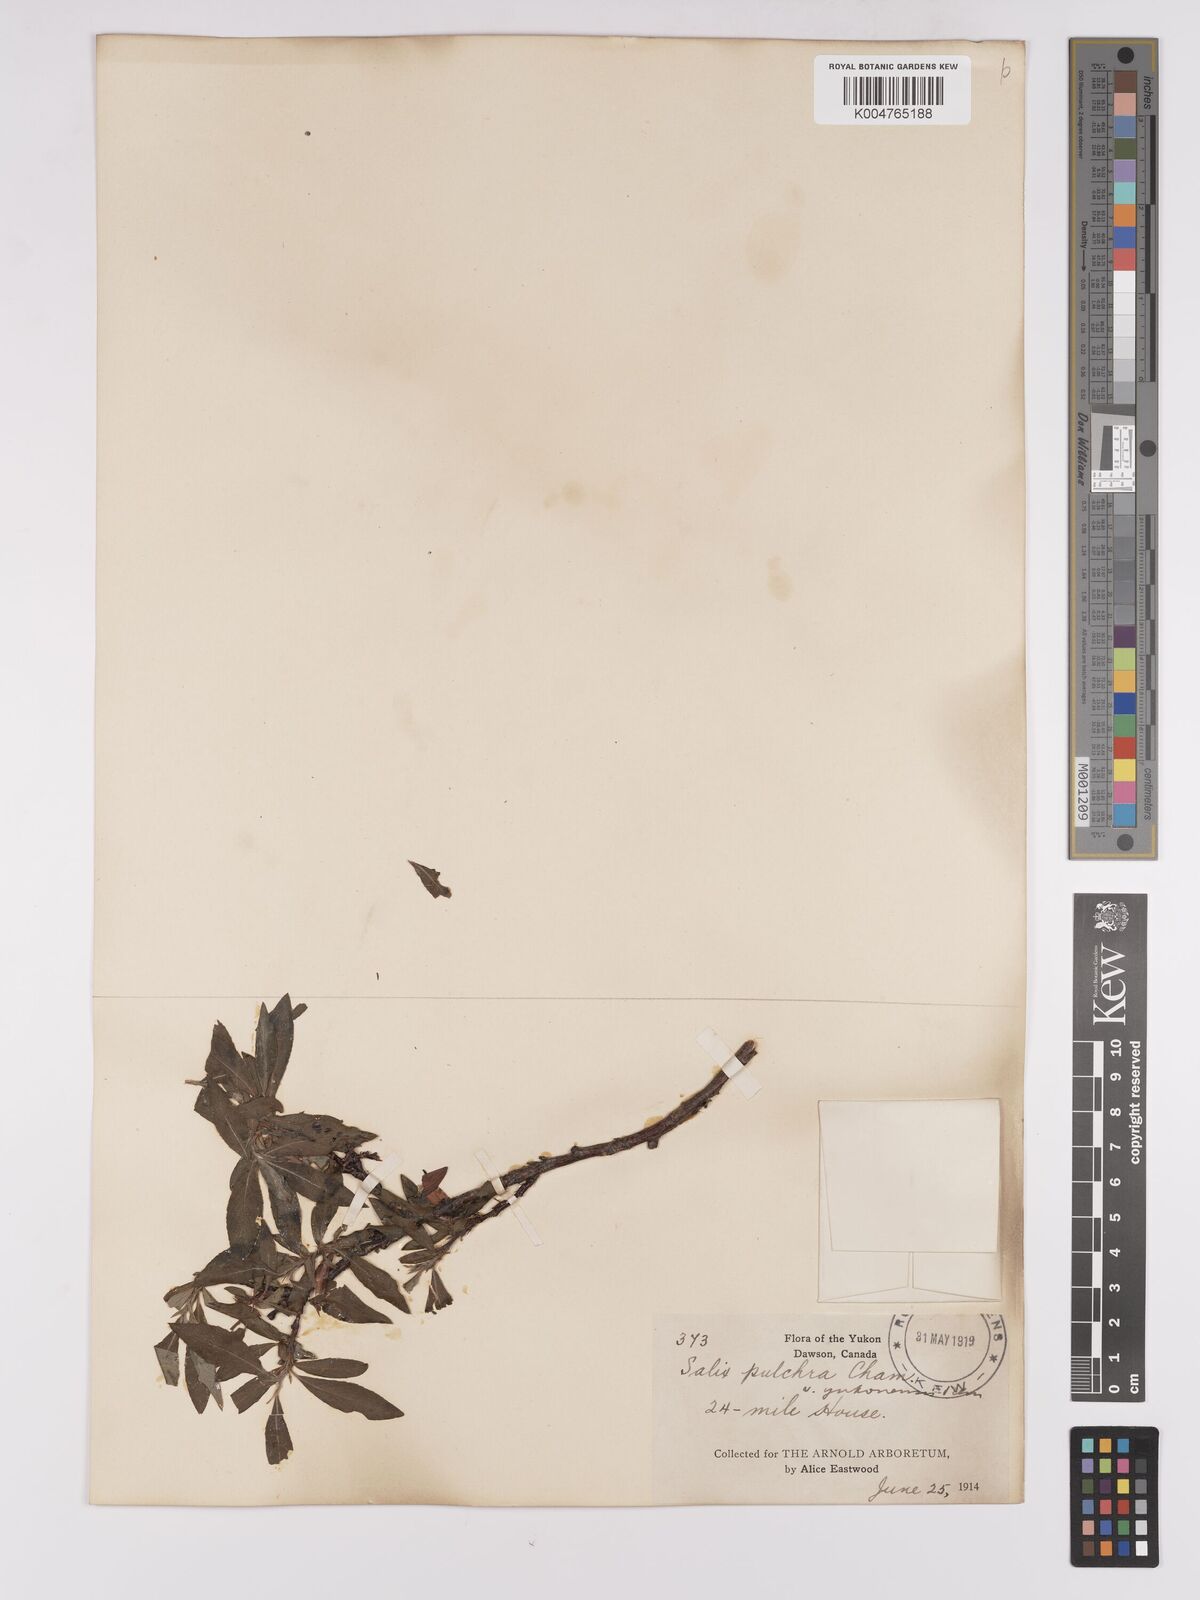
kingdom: Plantae
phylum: Tracheophyta
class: Magnoliopsida
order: Malpighiales
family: Salicaceae
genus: Salix
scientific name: Salix pulchra
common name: Diamond-leaved willow
